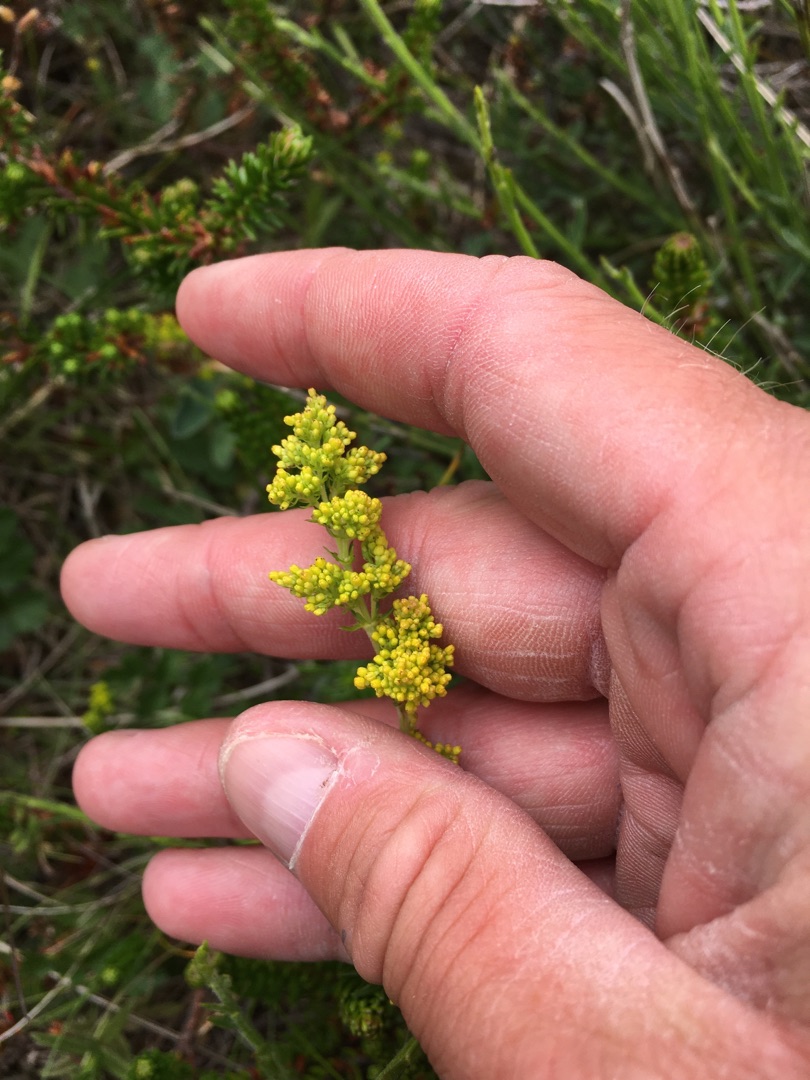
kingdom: Plantae
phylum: Tracheophyta
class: Magnoliopsida
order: Gentianales
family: Rubiaceae
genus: Galium
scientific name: Galium verum
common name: Gul snerre
